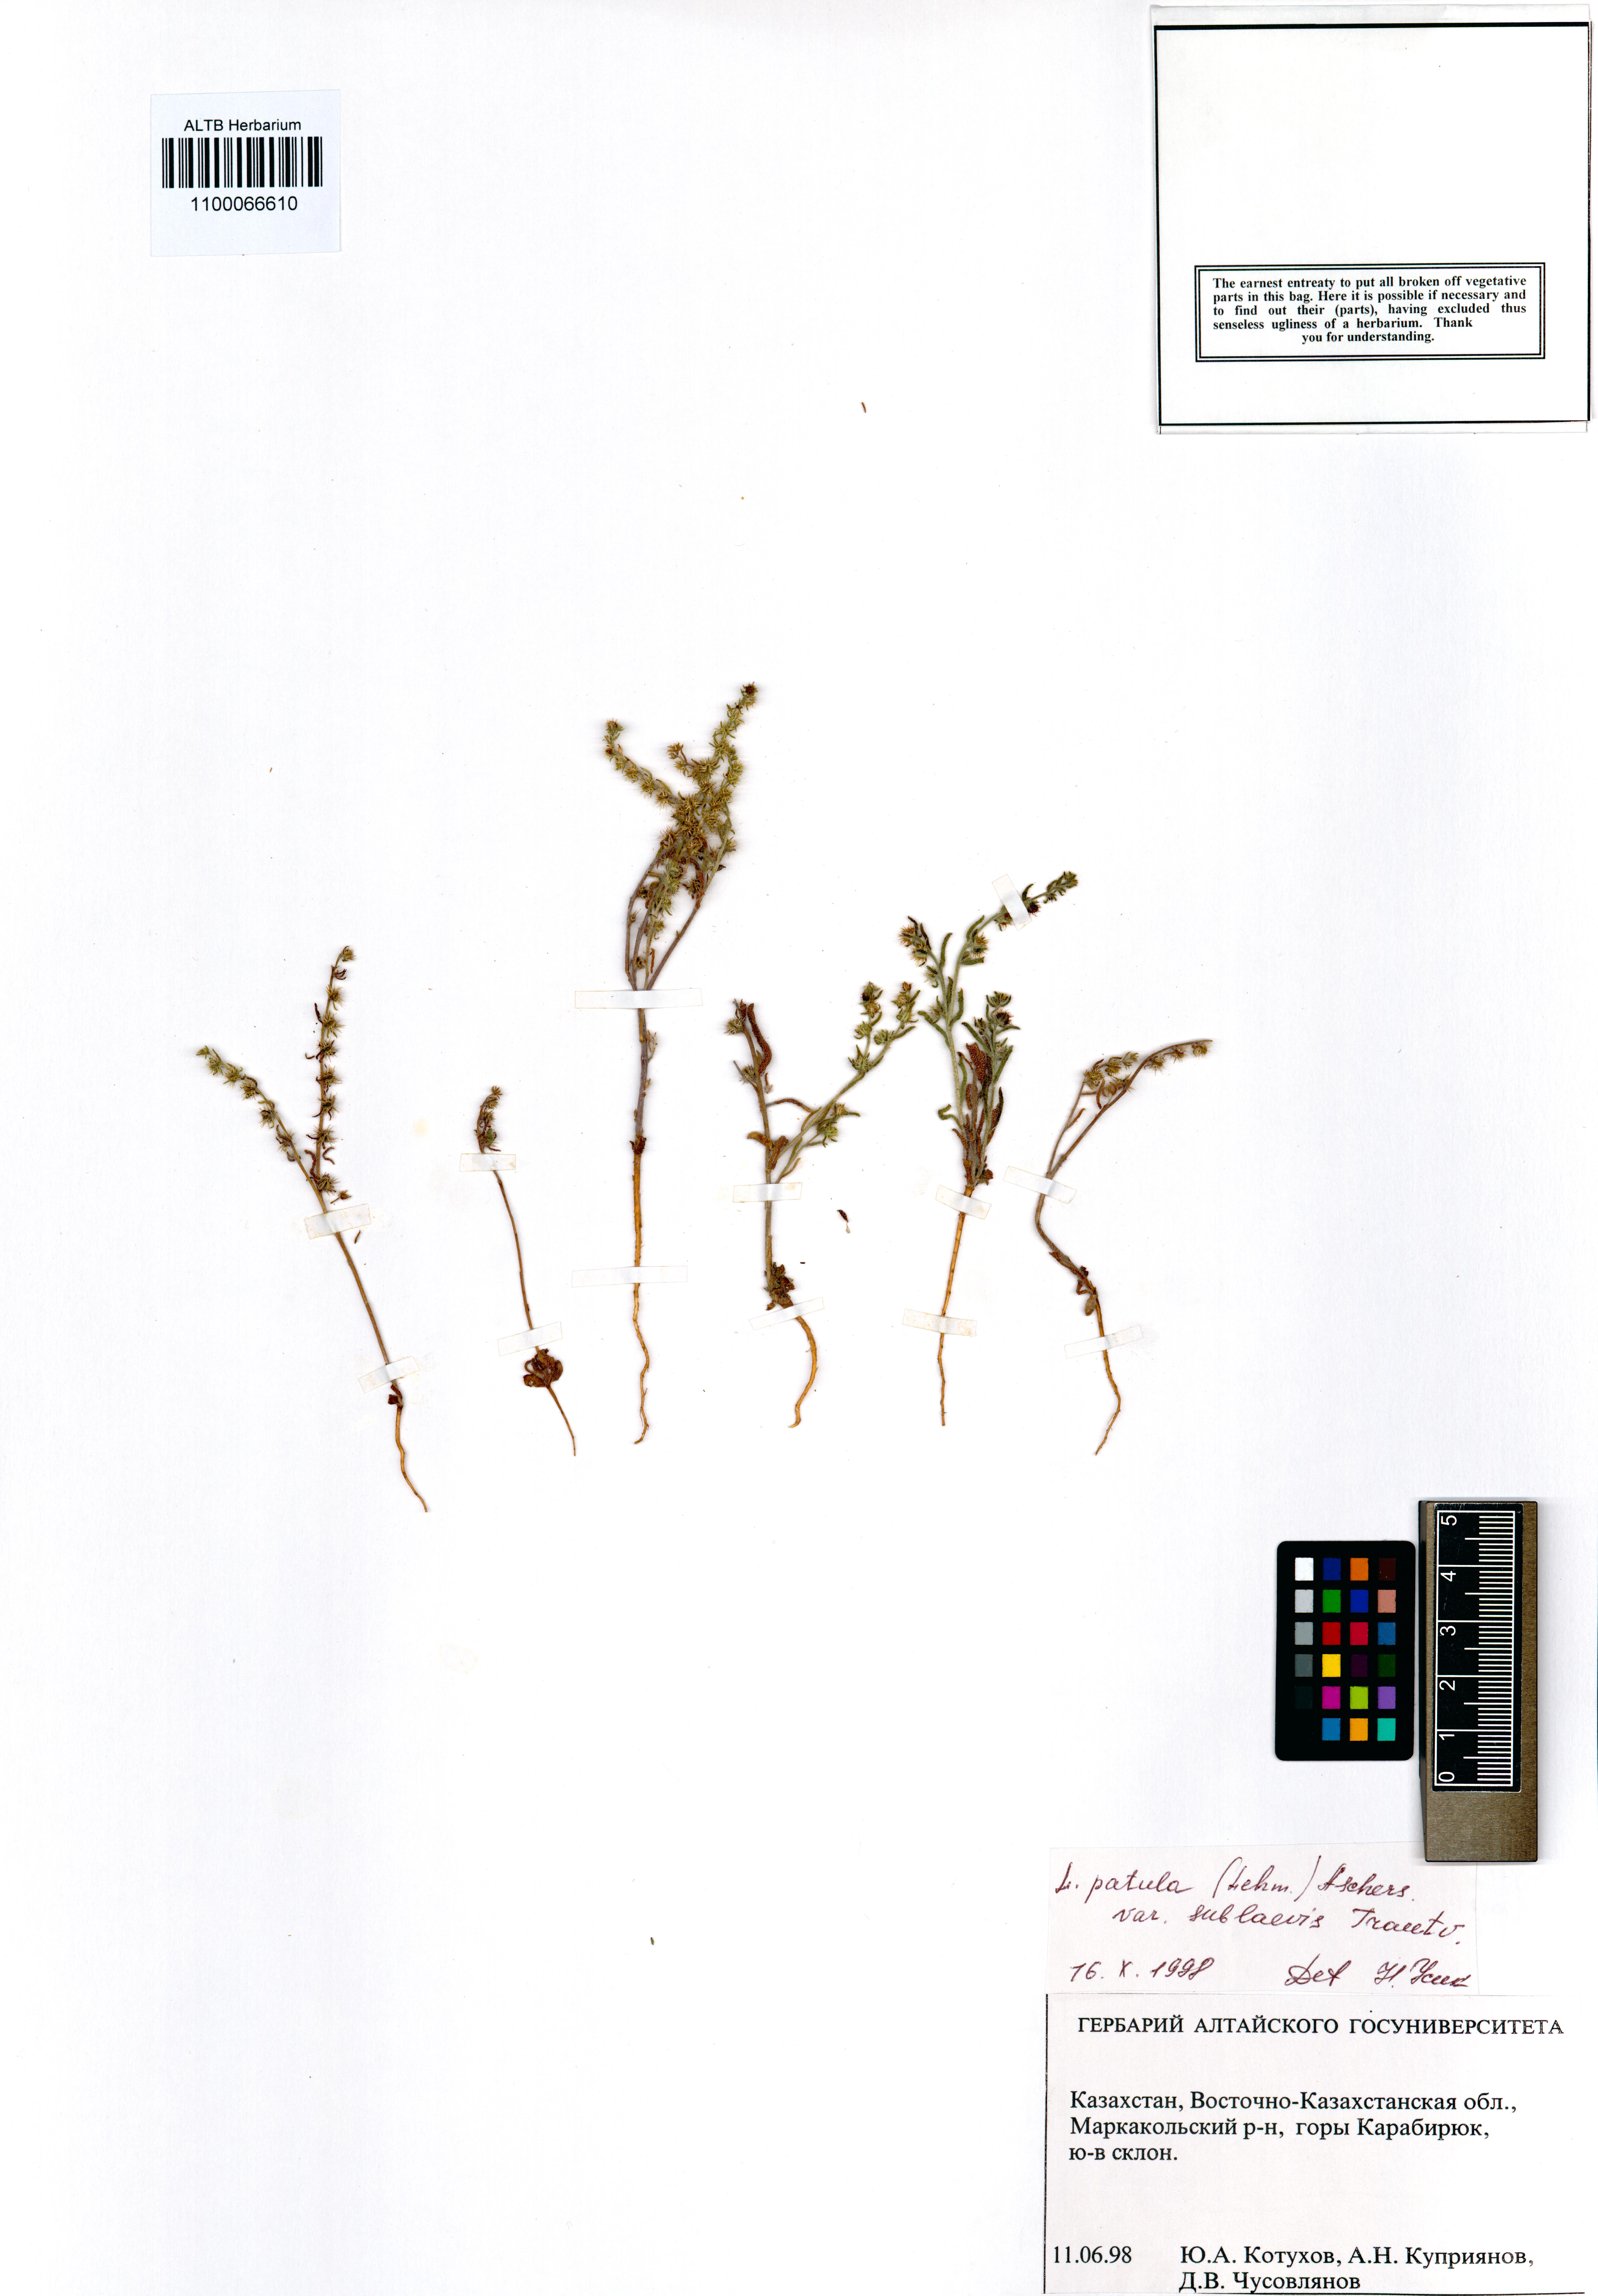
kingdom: Plantae
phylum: Tracheophyta
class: Magnoliopsida
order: Boraginales
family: Boraginaceae
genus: Lappula
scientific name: Lappula patula
